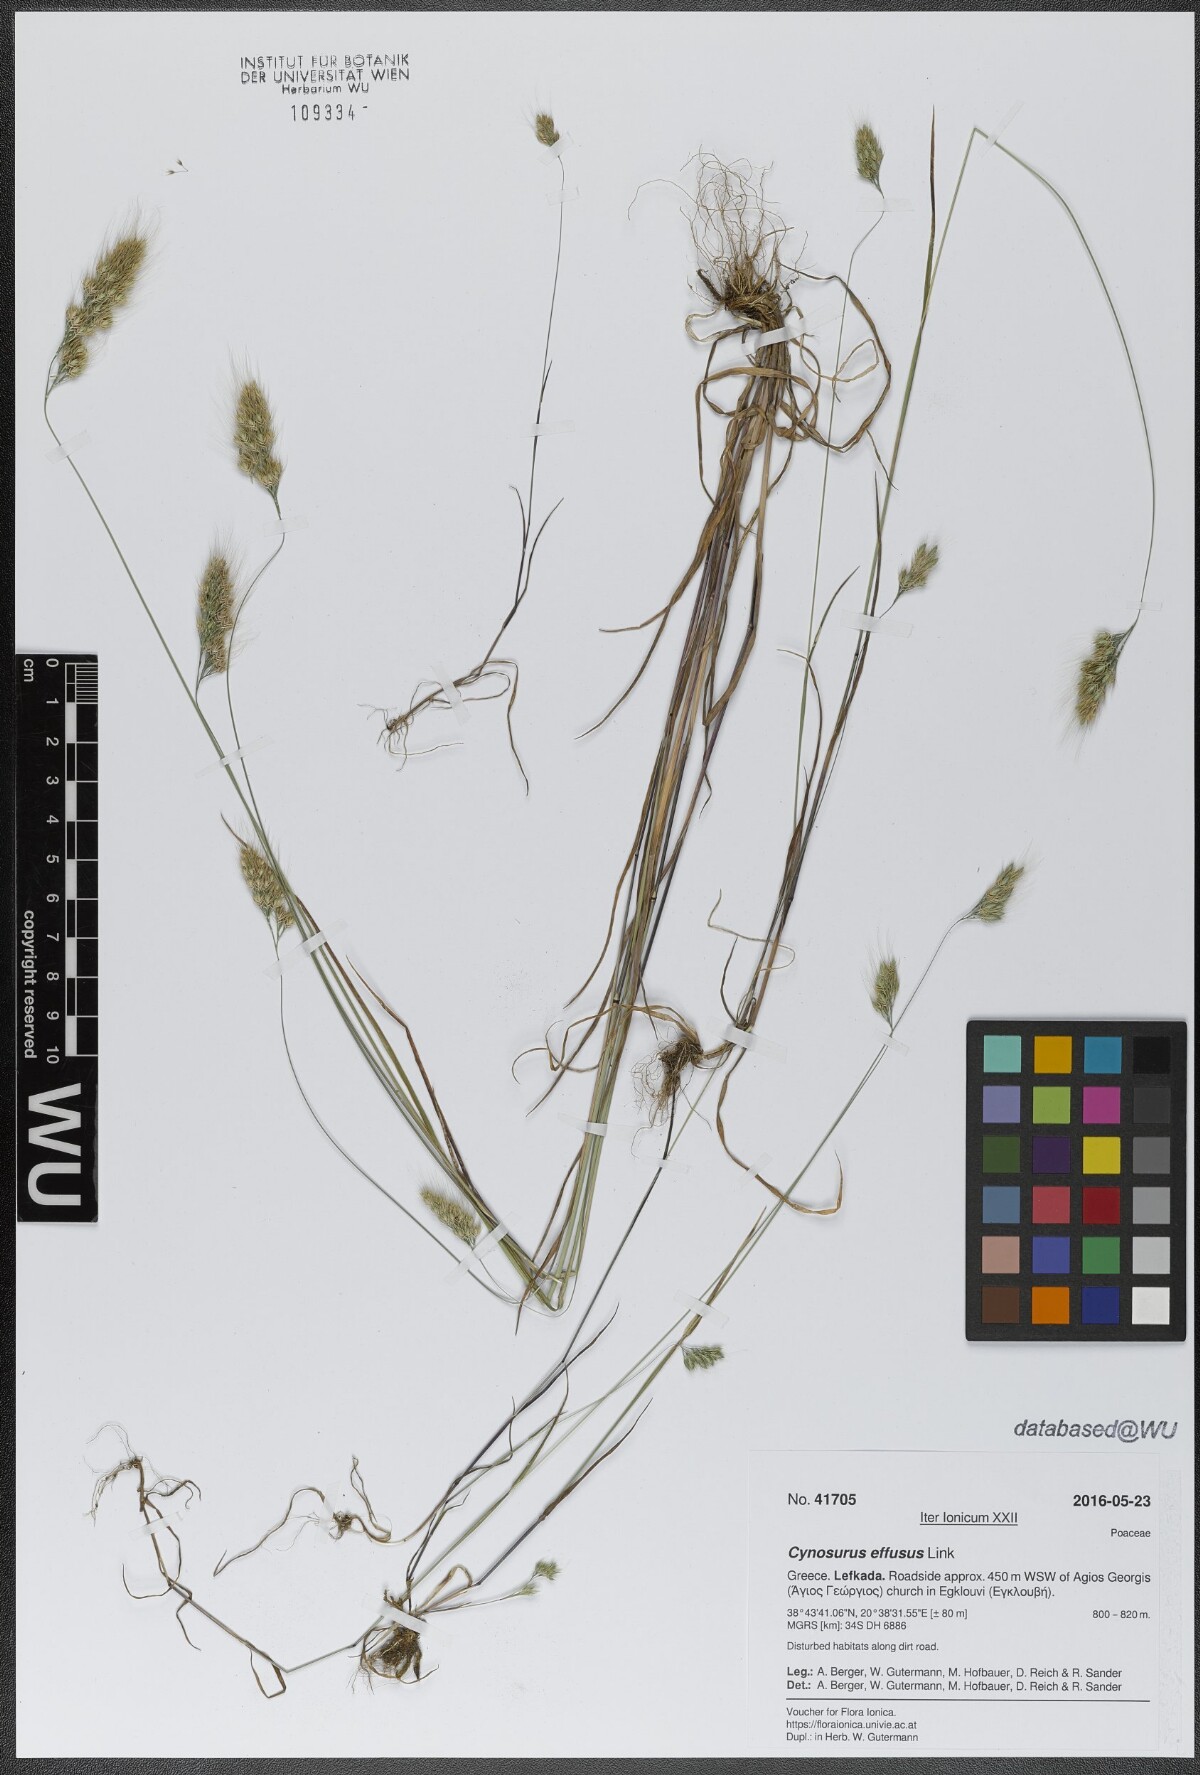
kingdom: Plantae
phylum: Tracheophyta
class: Liliopsida
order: Poales
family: Poaceae
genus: Cynosurus
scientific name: Cynosurus effusus
